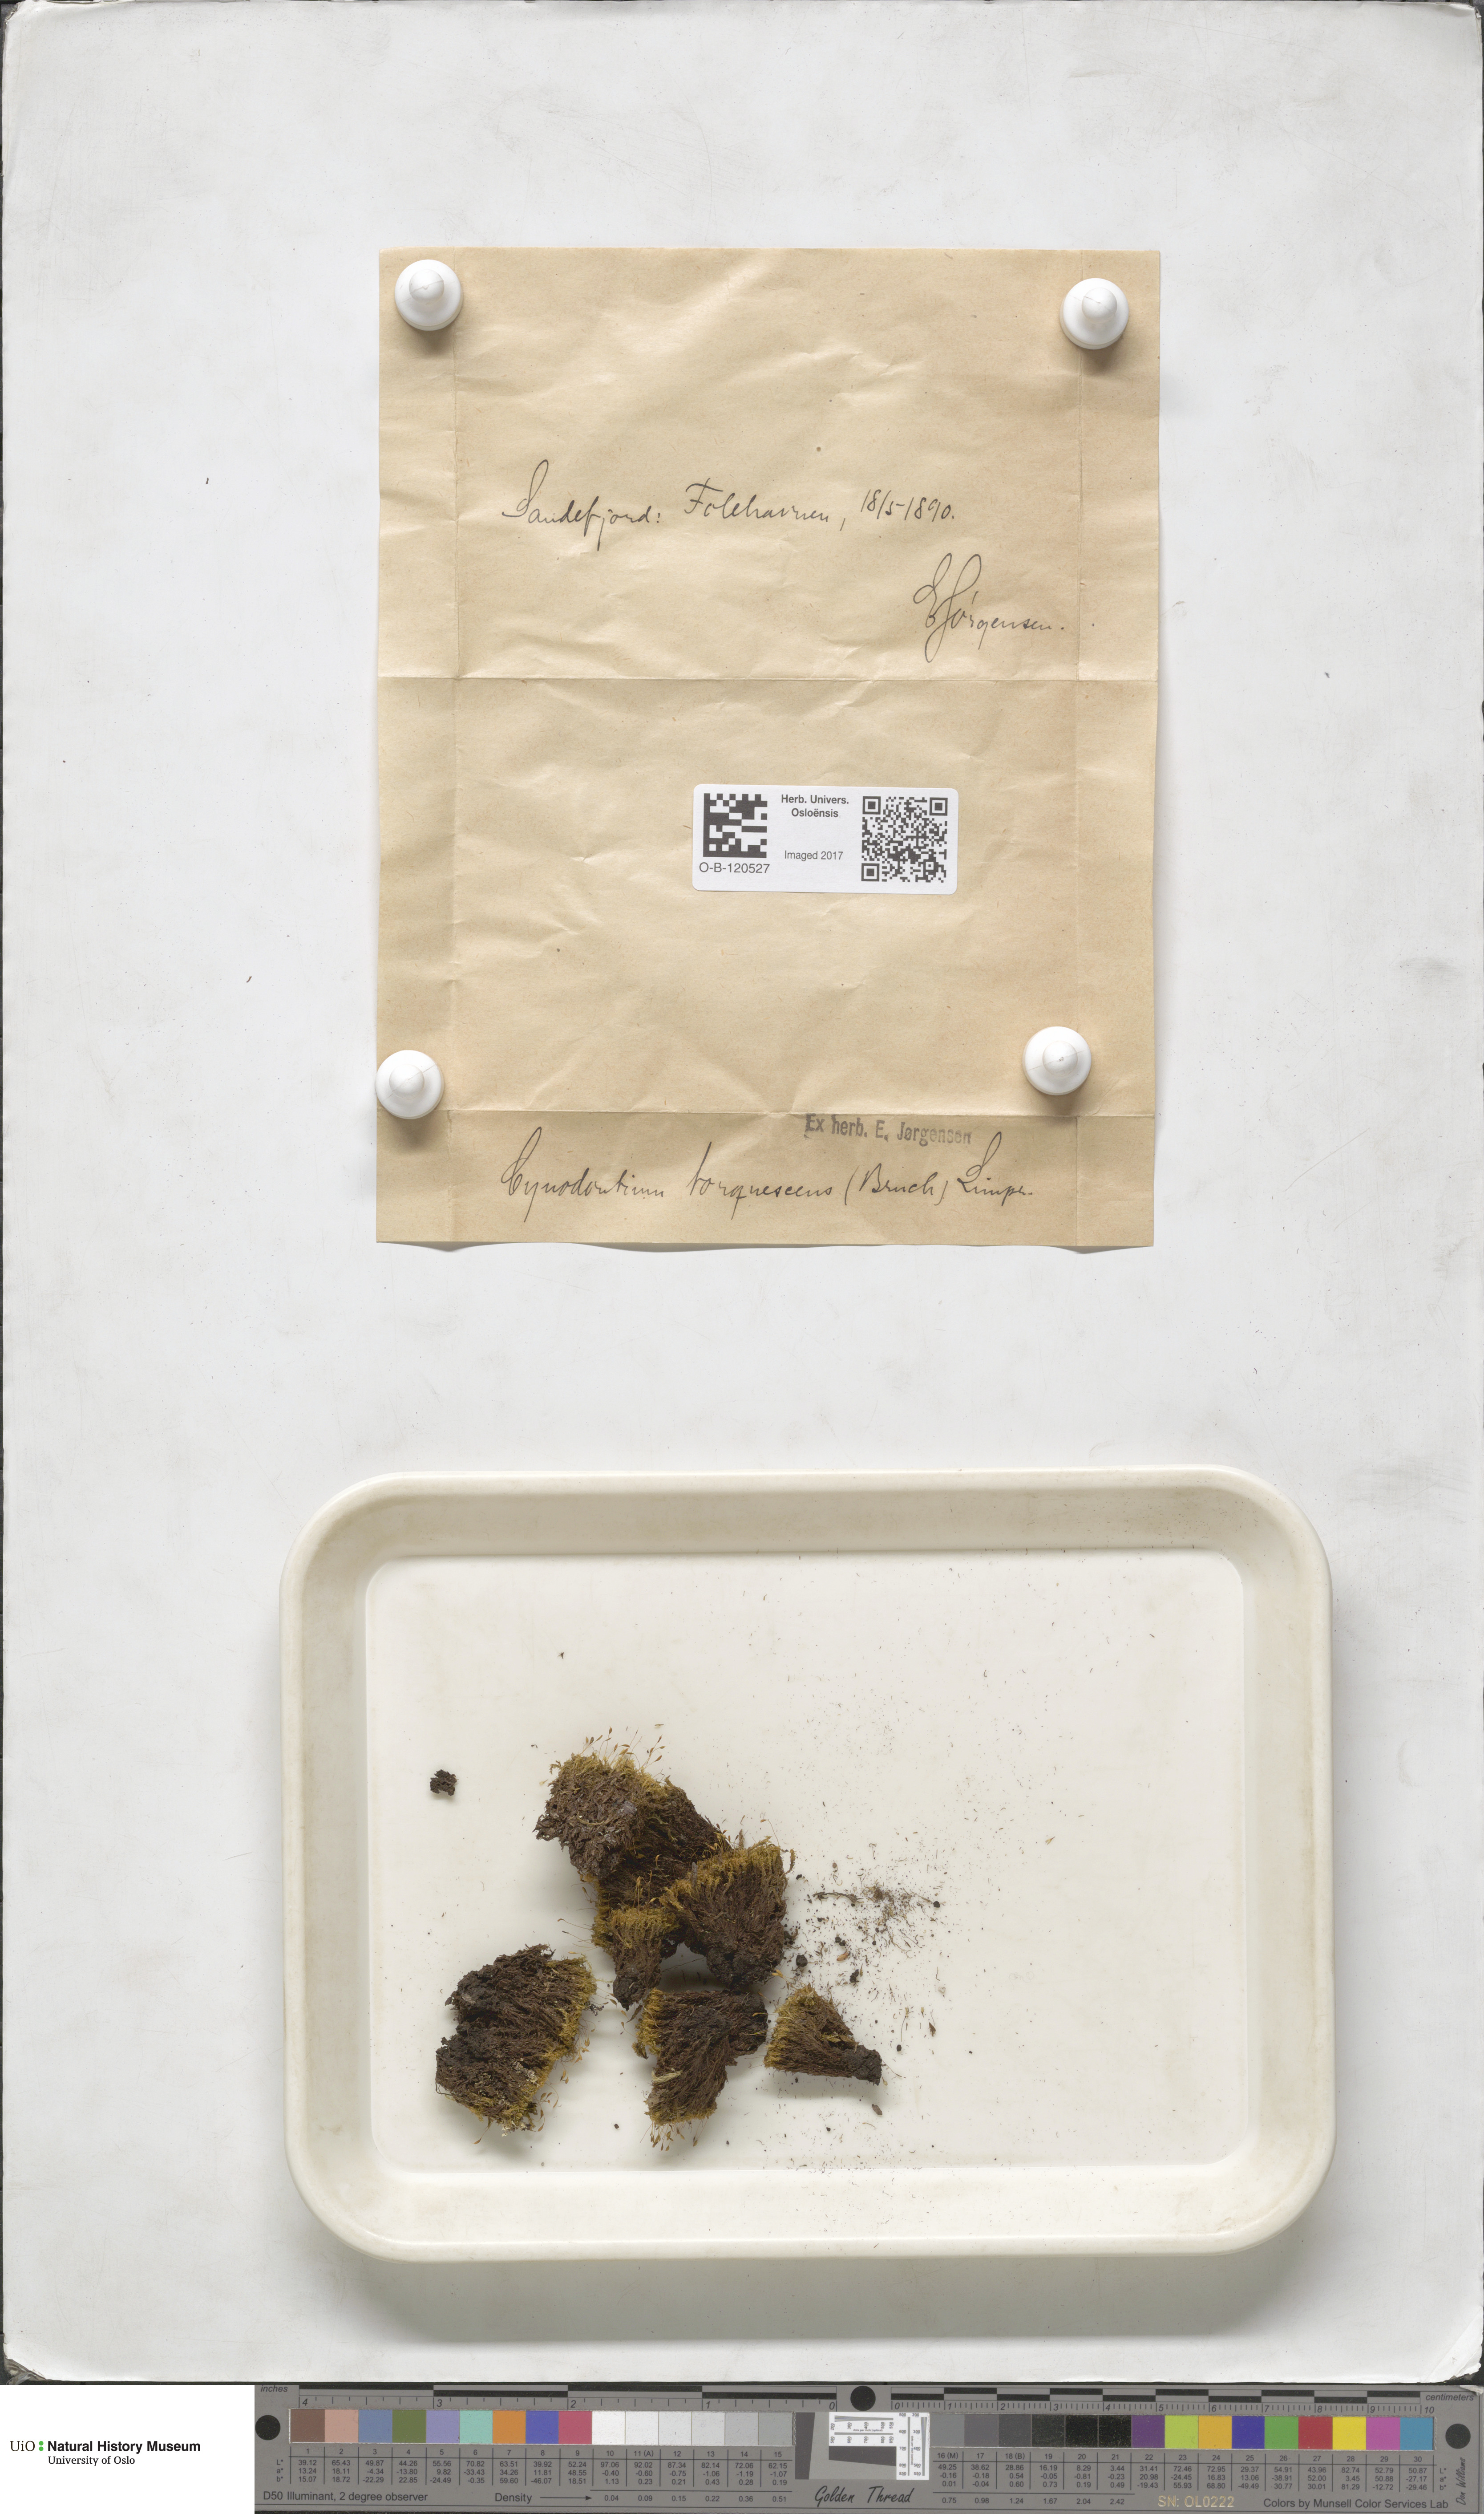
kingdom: Plantae
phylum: Bryophyta
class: Bryopsida
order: Dicranales
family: Rhabdoweisiaceae
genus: Cynodontium
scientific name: Cynodontium tenellum
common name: Delicate dogtooth moss
